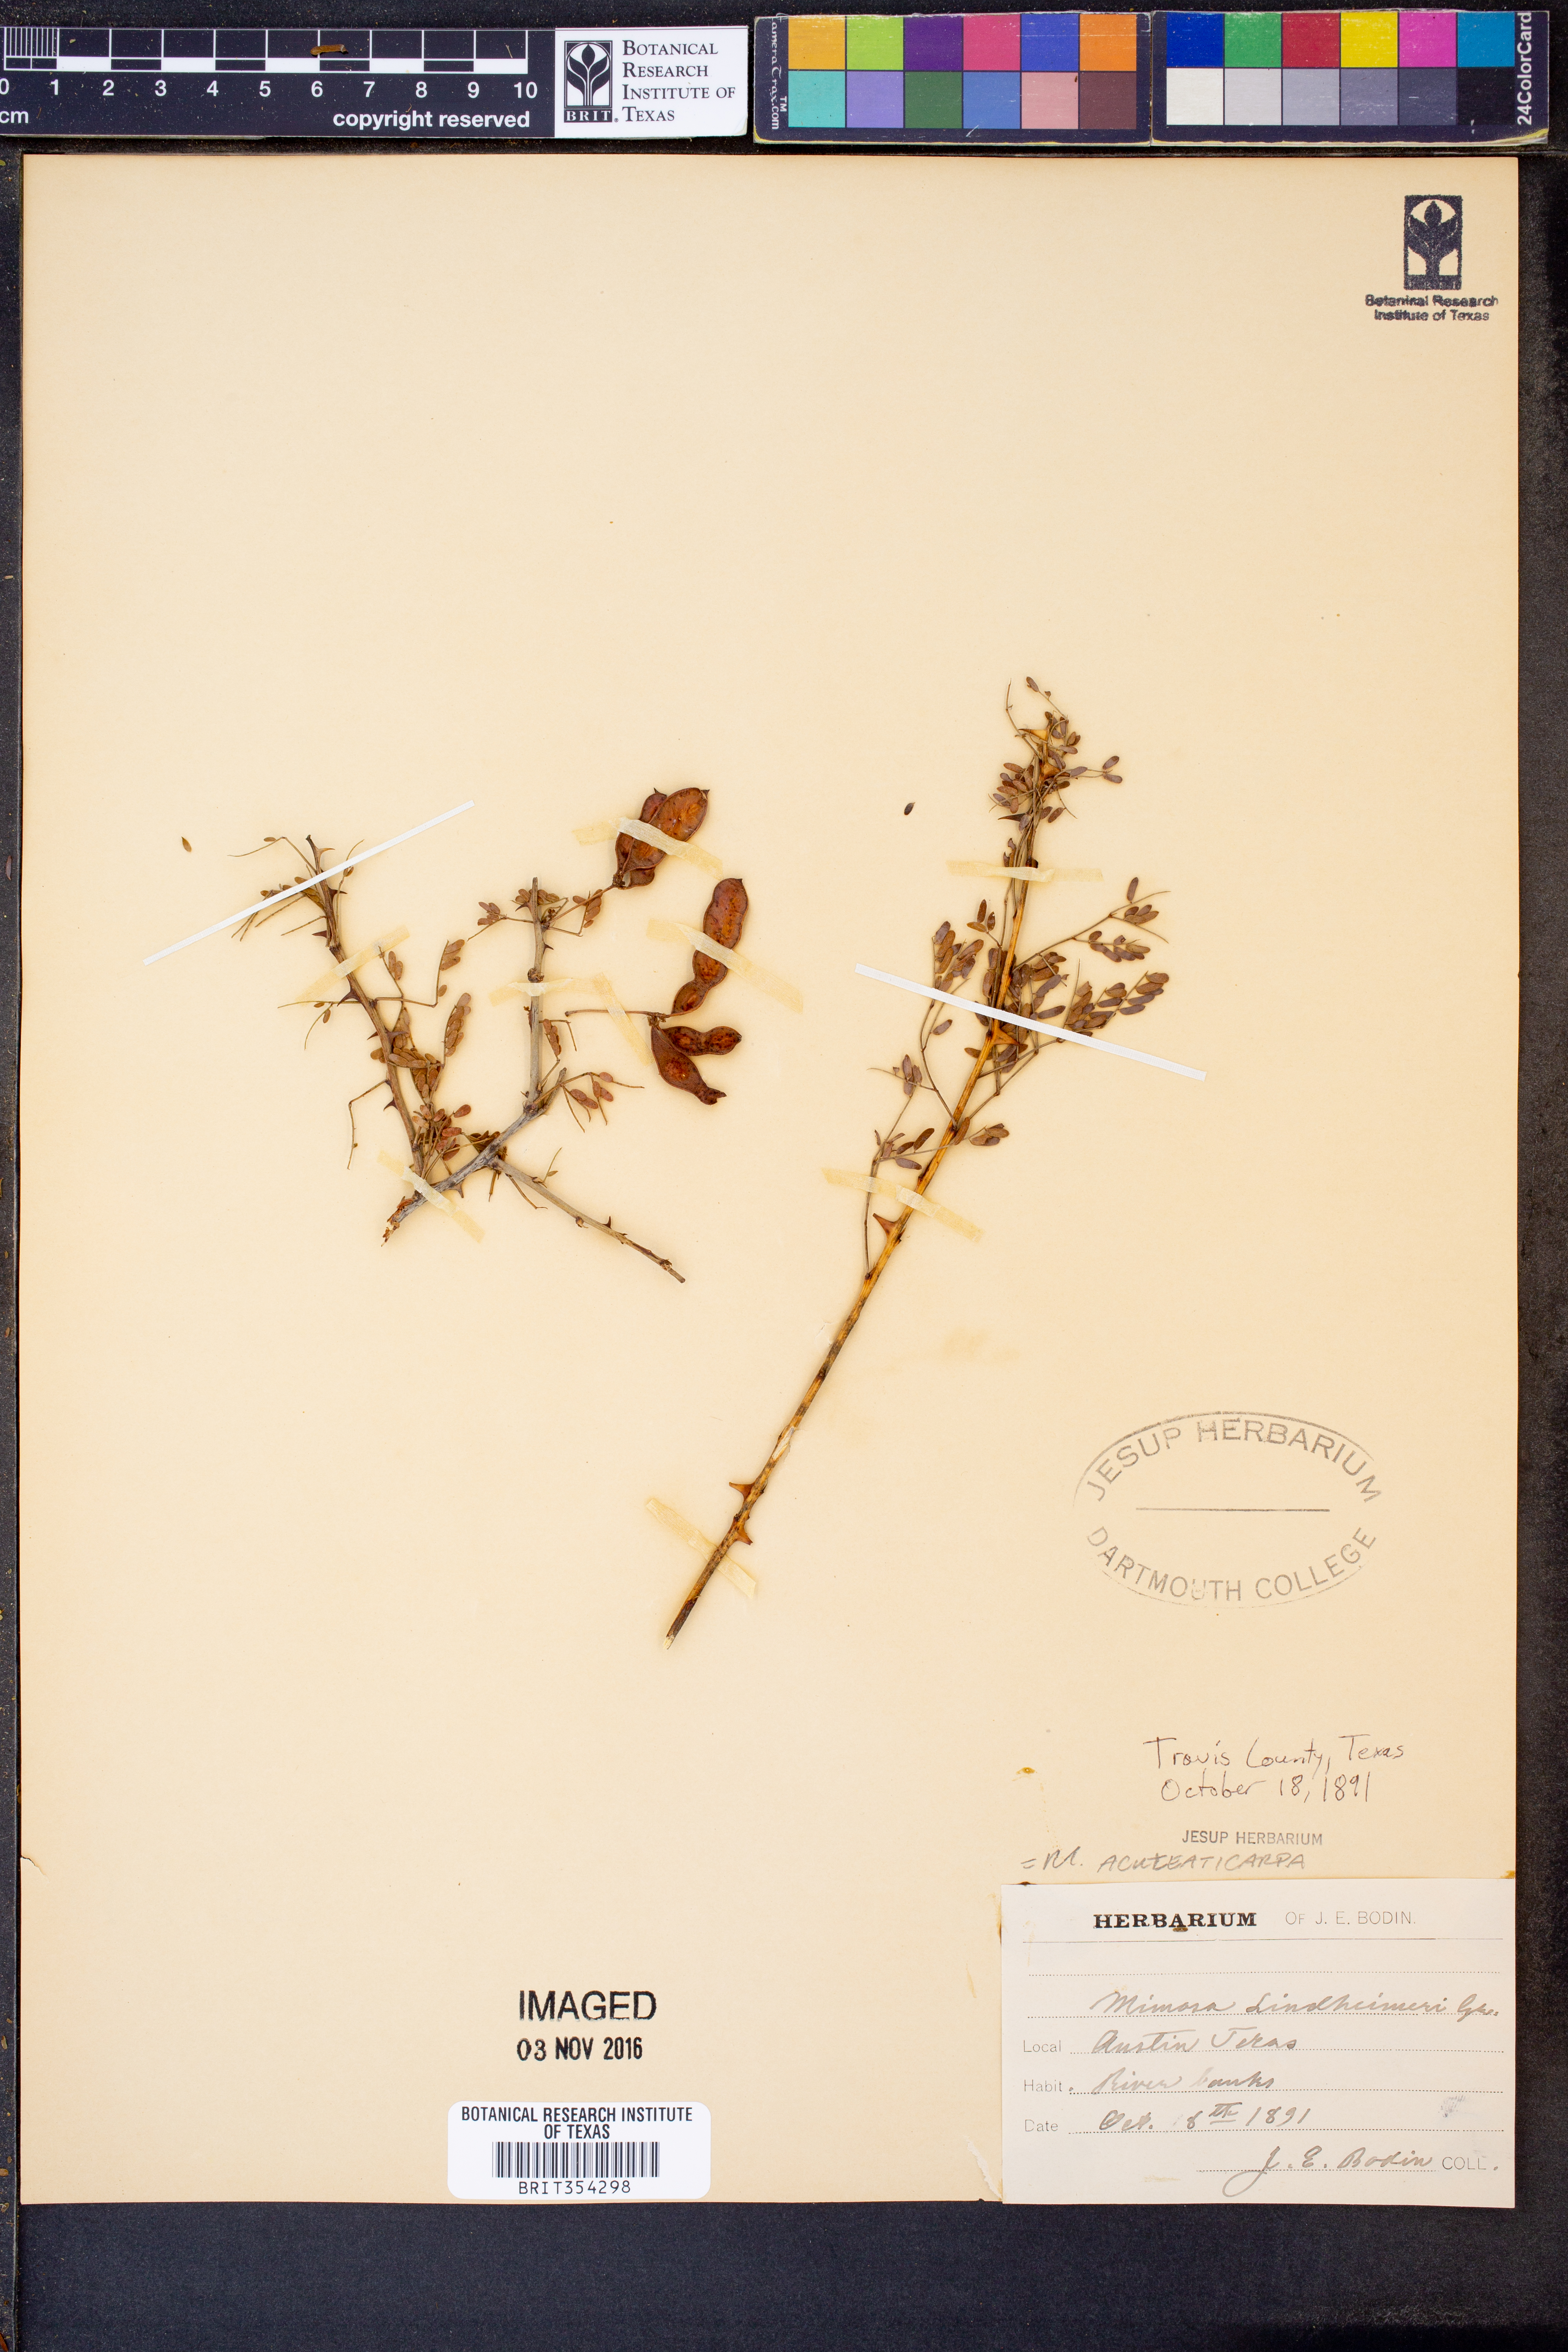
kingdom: Plantae
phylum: Tracheophyta
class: Magnoliopsida
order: Fabales
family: Fabaceae
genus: Mimosa
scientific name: Mimosa aculeaticarpa
